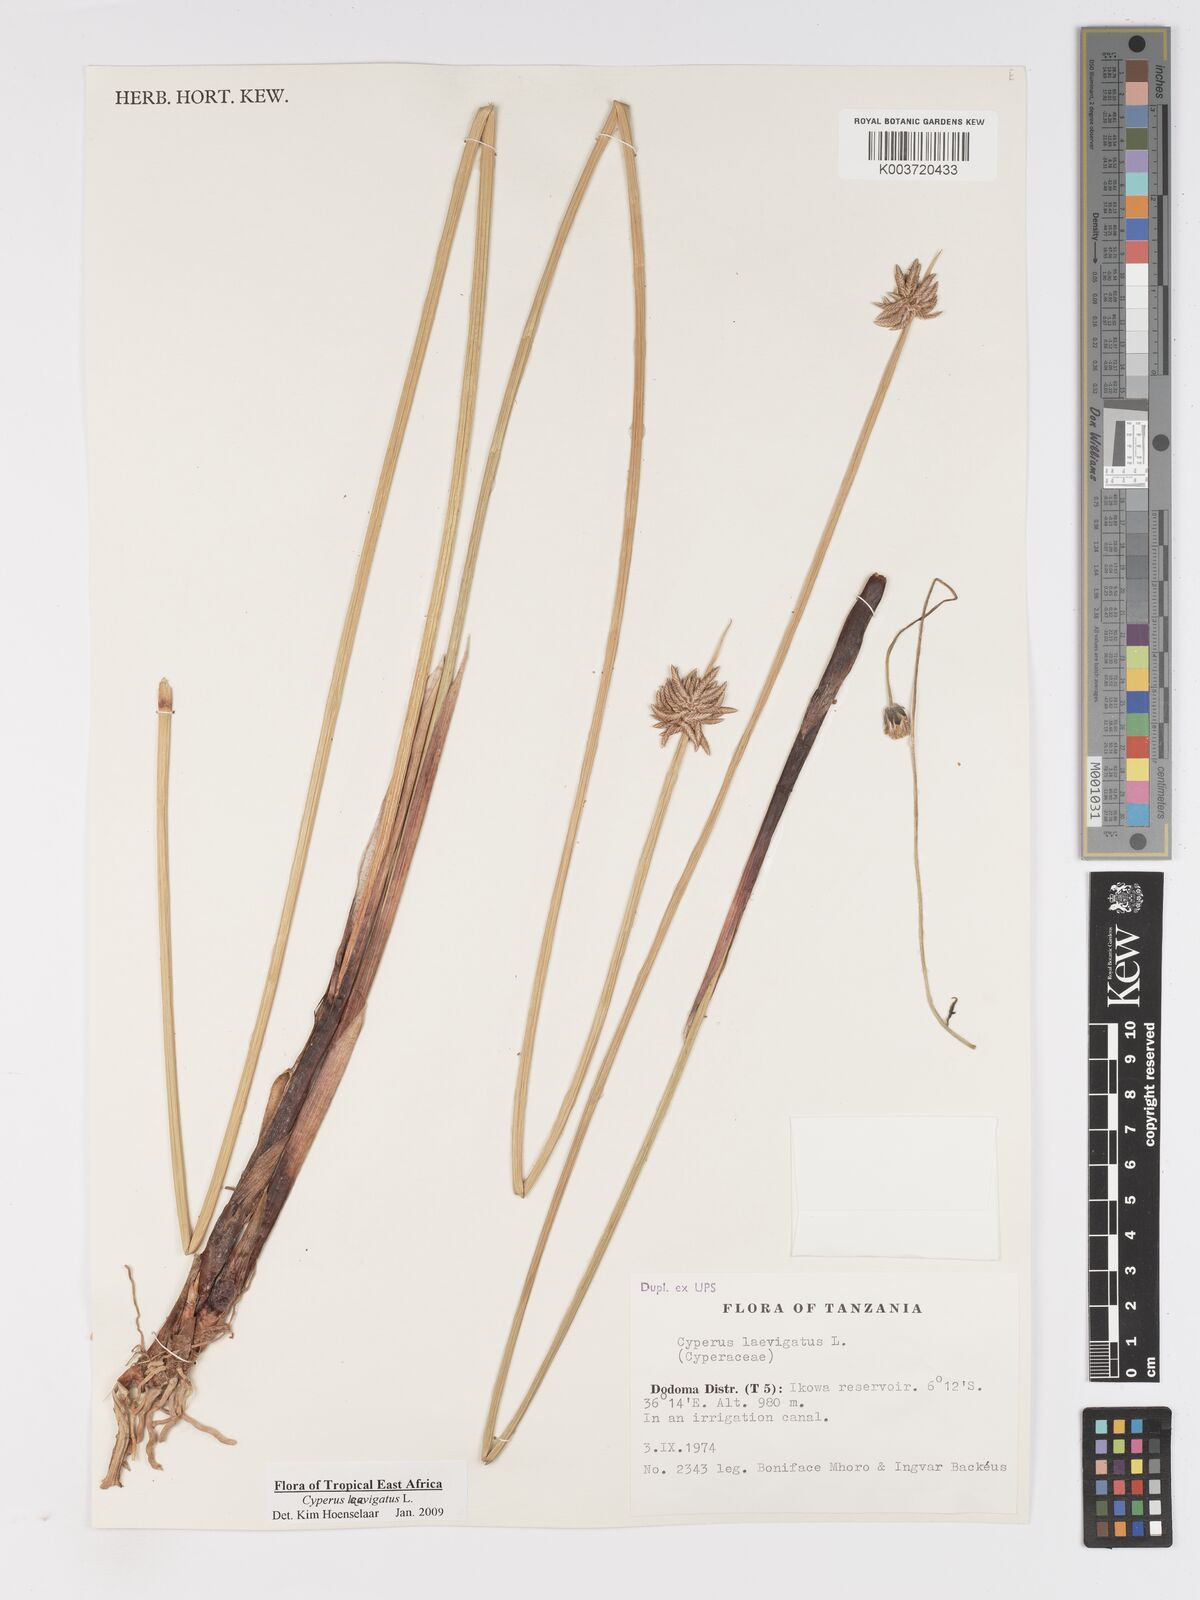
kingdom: Plantae
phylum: Tracheophyta
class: Liliopsida
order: Poales
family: Cyperaceae
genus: Cyperus
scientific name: Cyperus laevigatus
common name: Smooth flat sedge
